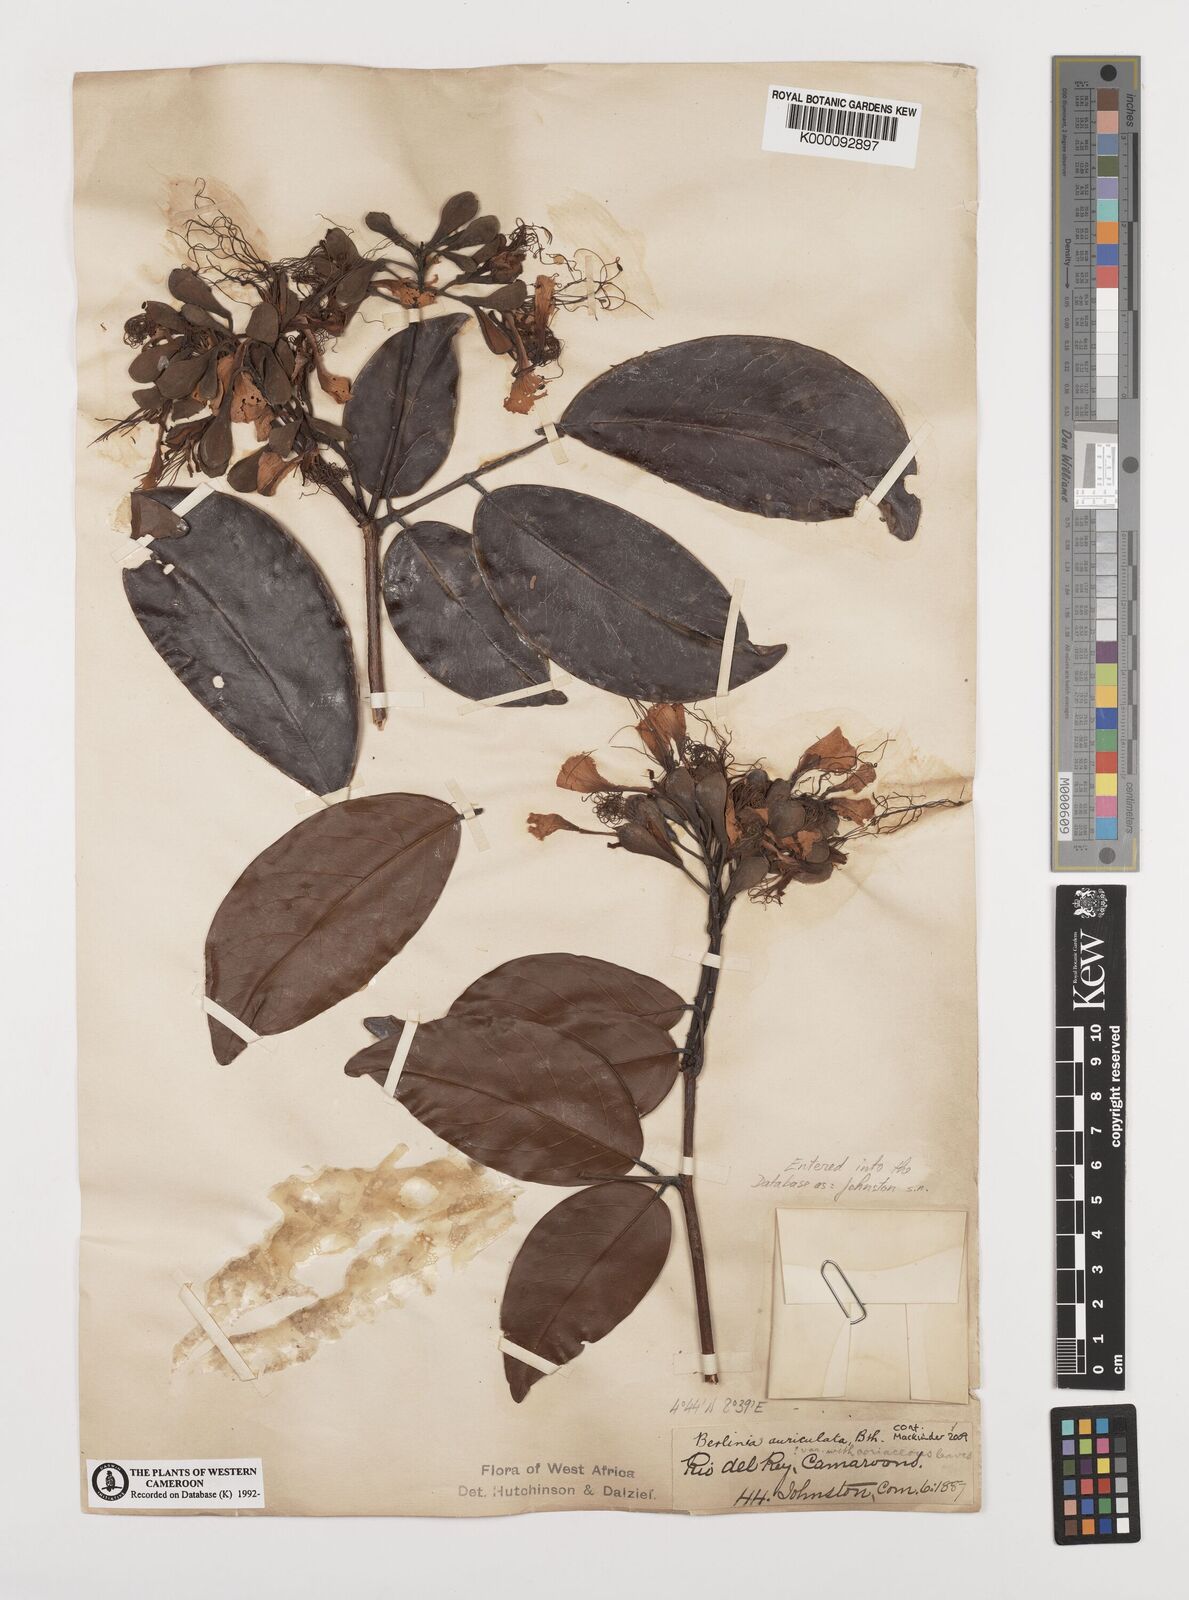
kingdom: Plantae
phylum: Tracheophyta
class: Magnoliopsida
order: Fabales
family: Fabaceae
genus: Berlinia
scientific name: Berlinia auriculata
